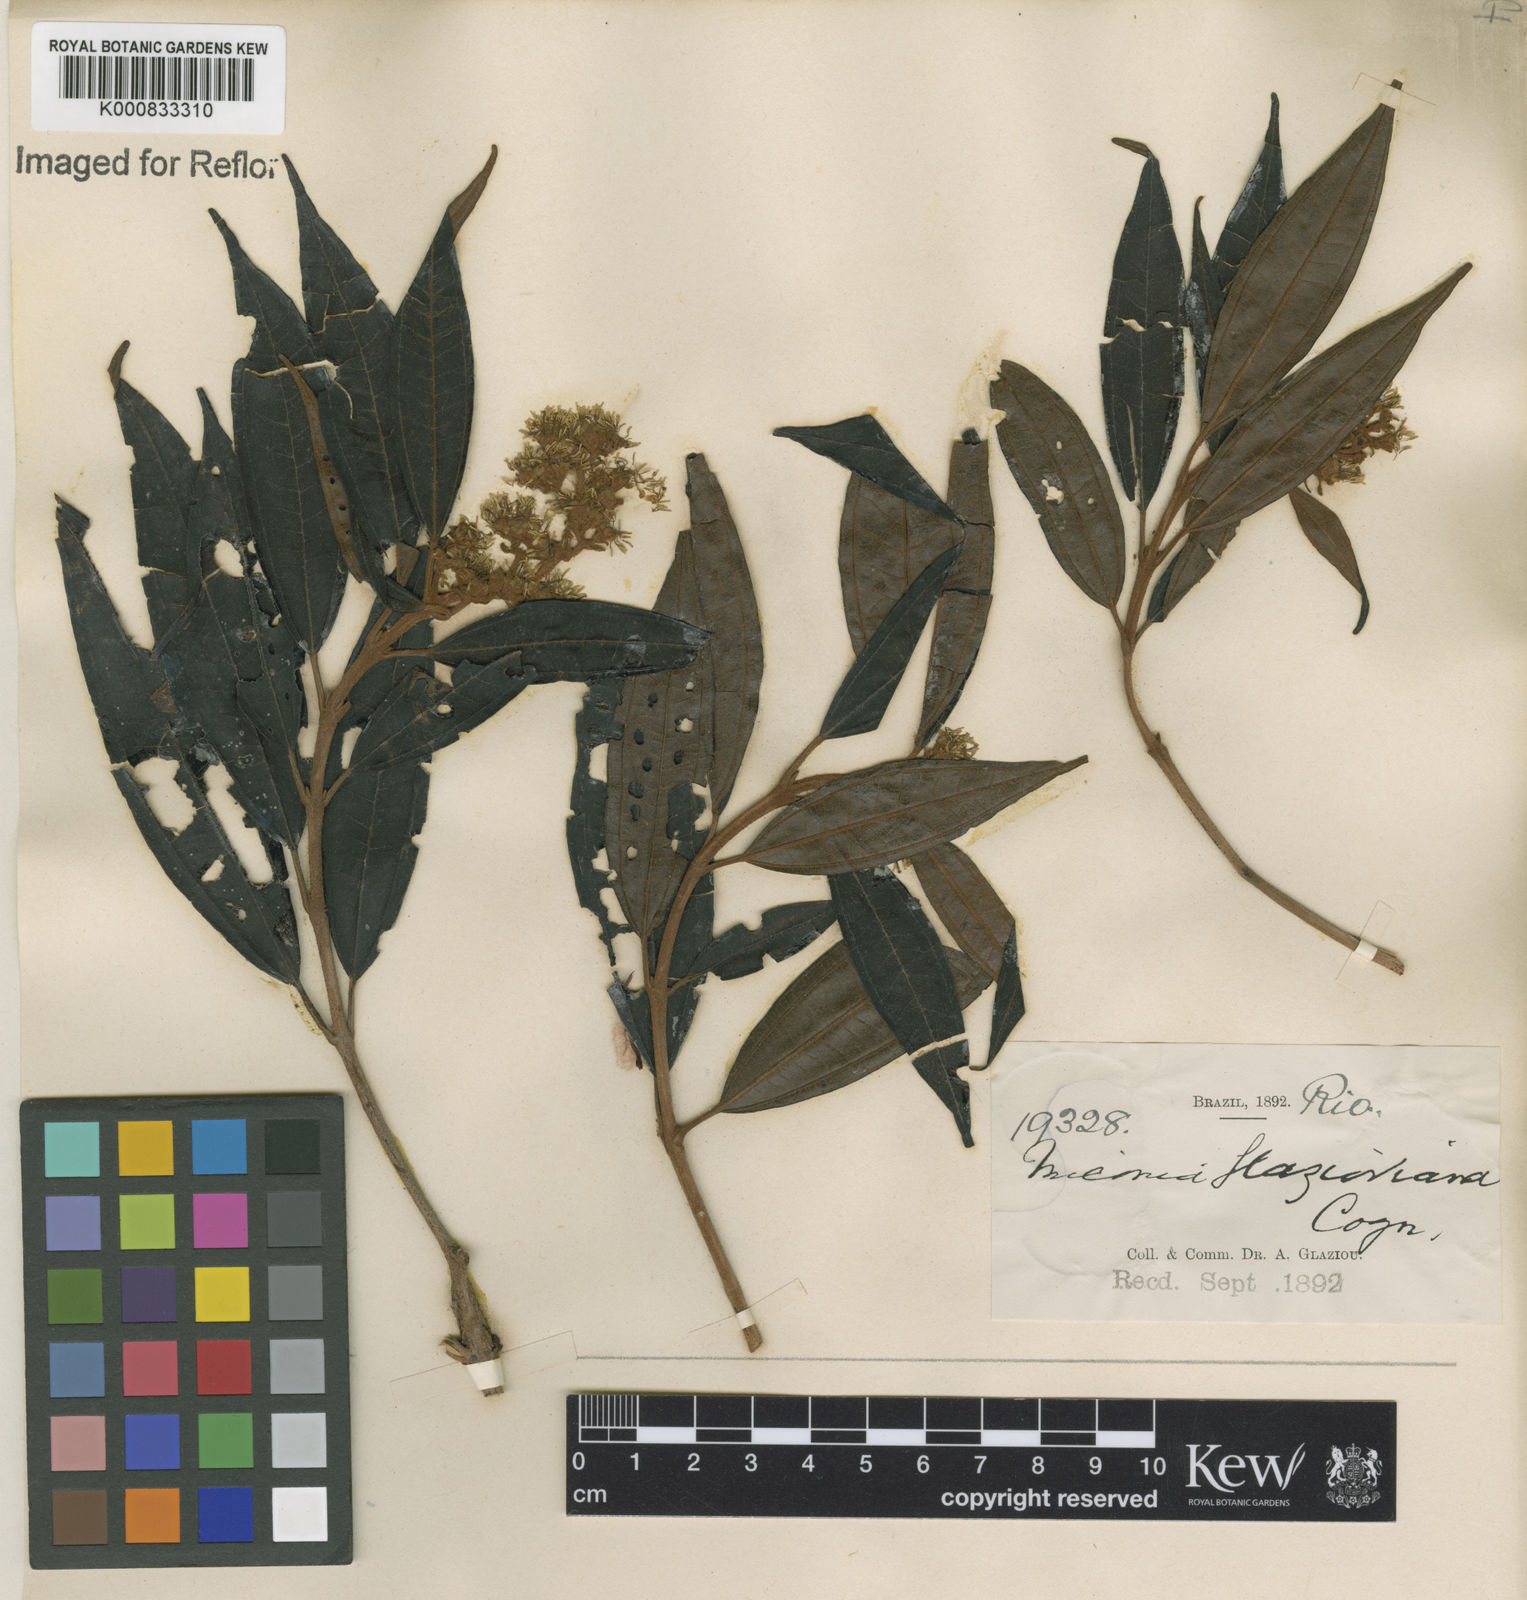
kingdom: Plantae
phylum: Tracheophyta
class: Magnoliopsida
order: Myrtales
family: Melastomataceae
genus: Miconia
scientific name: Miconia glazioviana
